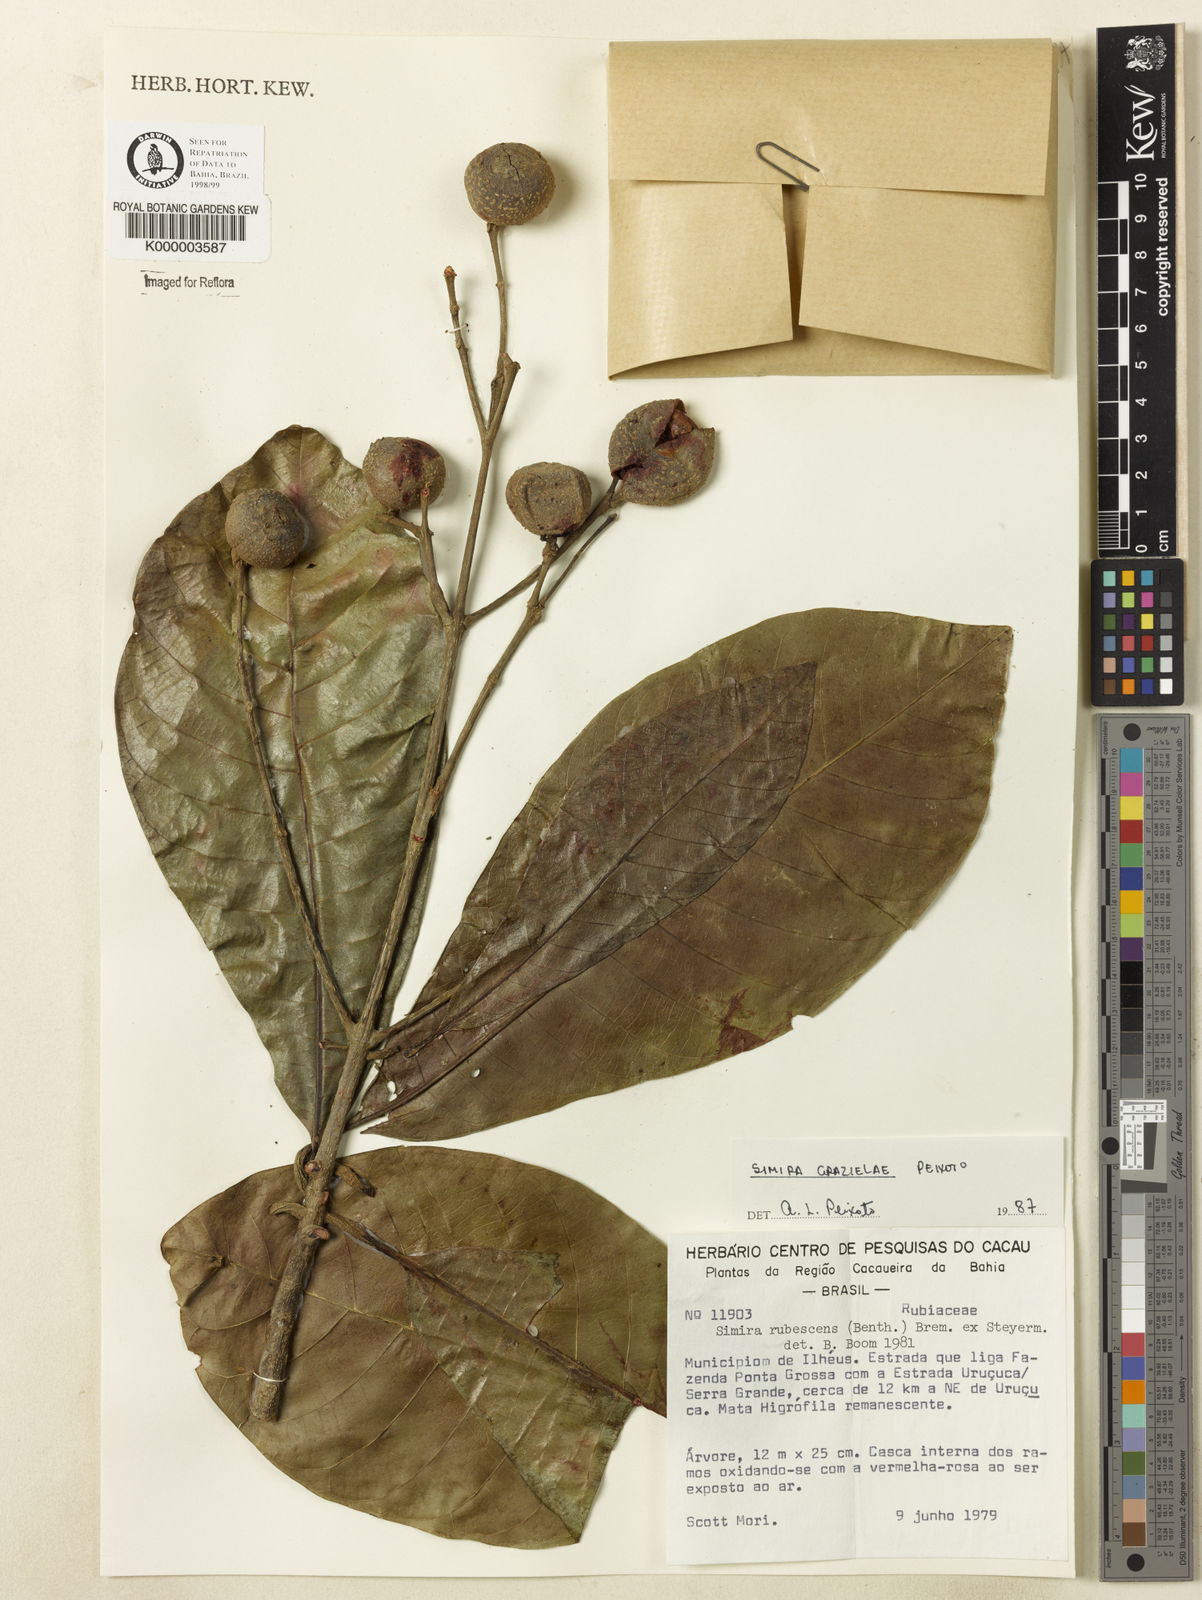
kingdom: Plantae
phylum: Tracheophyta
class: Magnoliopsida
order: Gentianales
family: Rubiaceae
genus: Simira
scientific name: Simira grazielae
